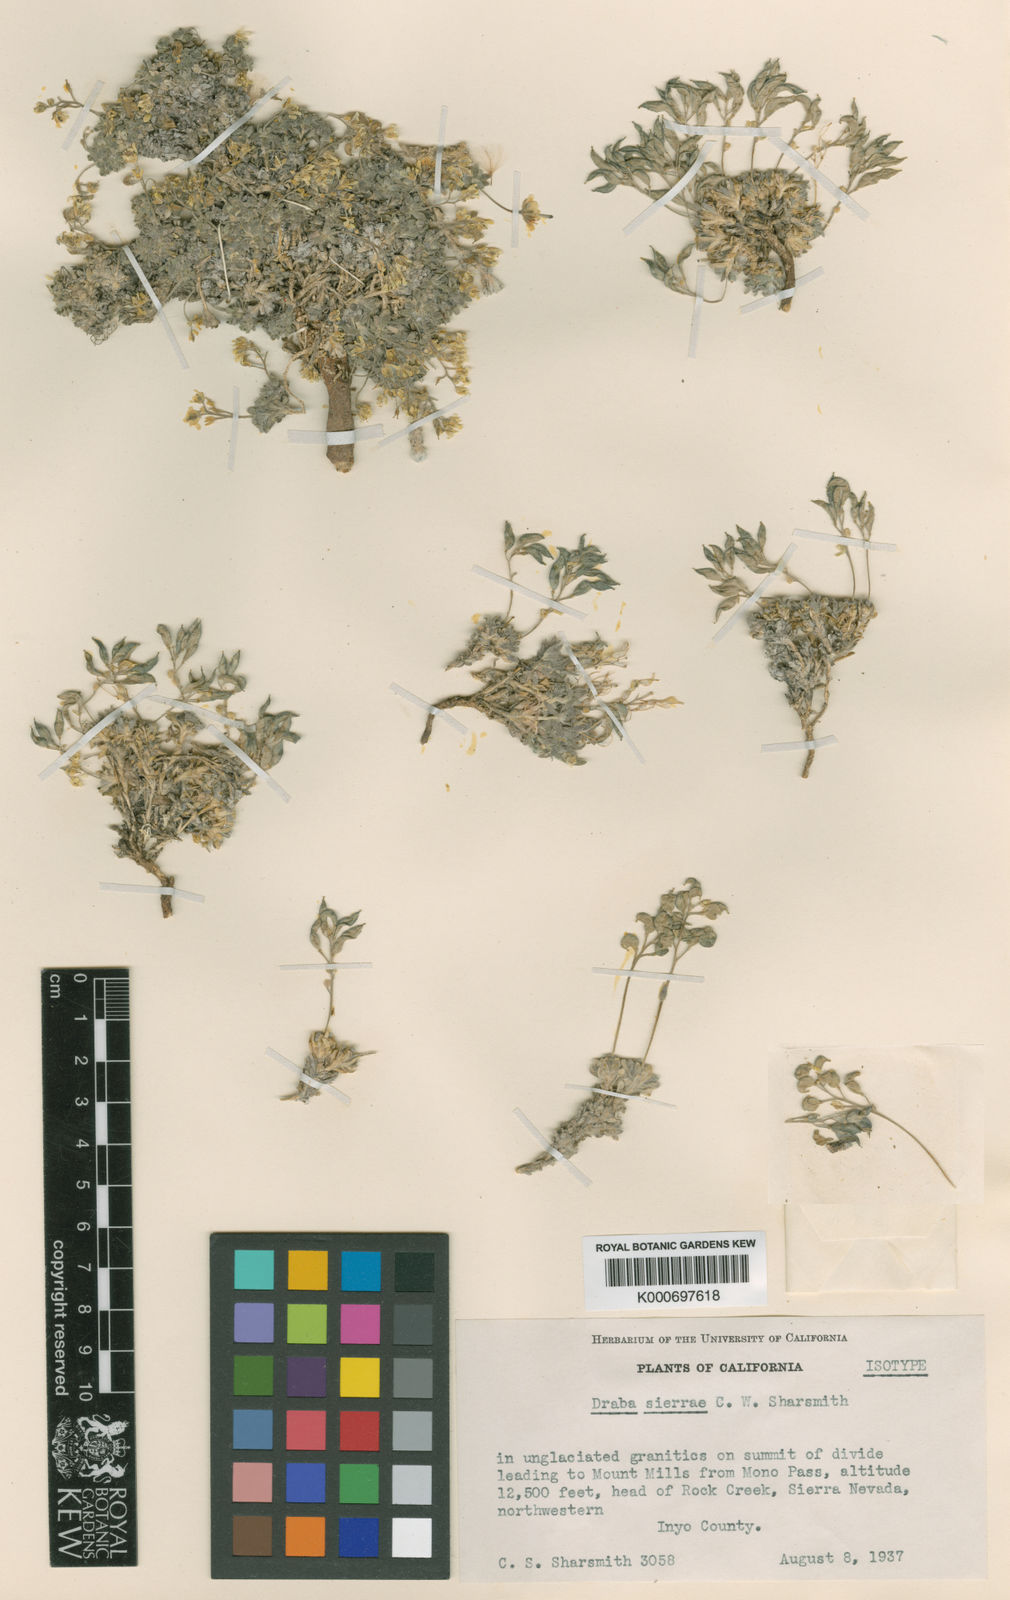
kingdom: Plantae
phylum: Tracheophyta
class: Magnoliopsida
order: Brassicales
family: Brassicaceae
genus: Draba
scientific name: Draba sierrae
